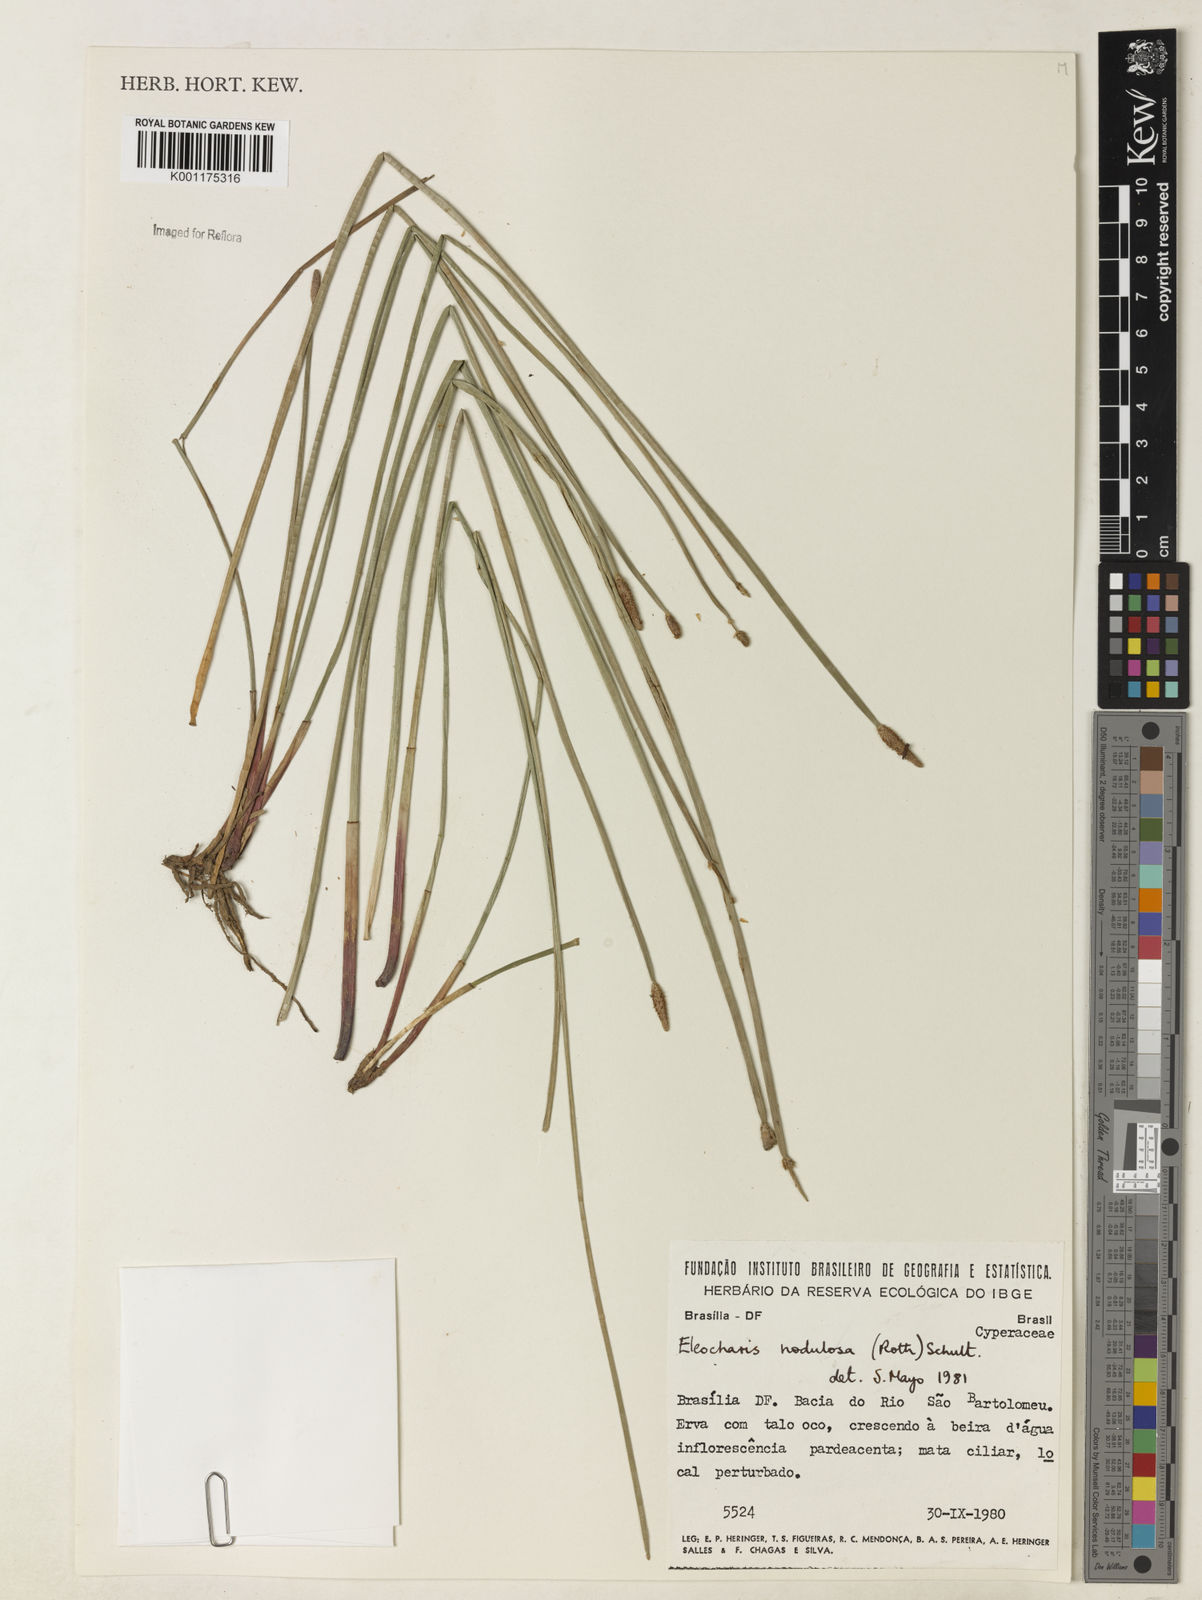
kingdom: Plantae
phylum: Tracheophyta
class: Liliopsida
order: Poales
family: Cyperaceae
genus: Eleocharis
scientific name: Eleocharis montana
